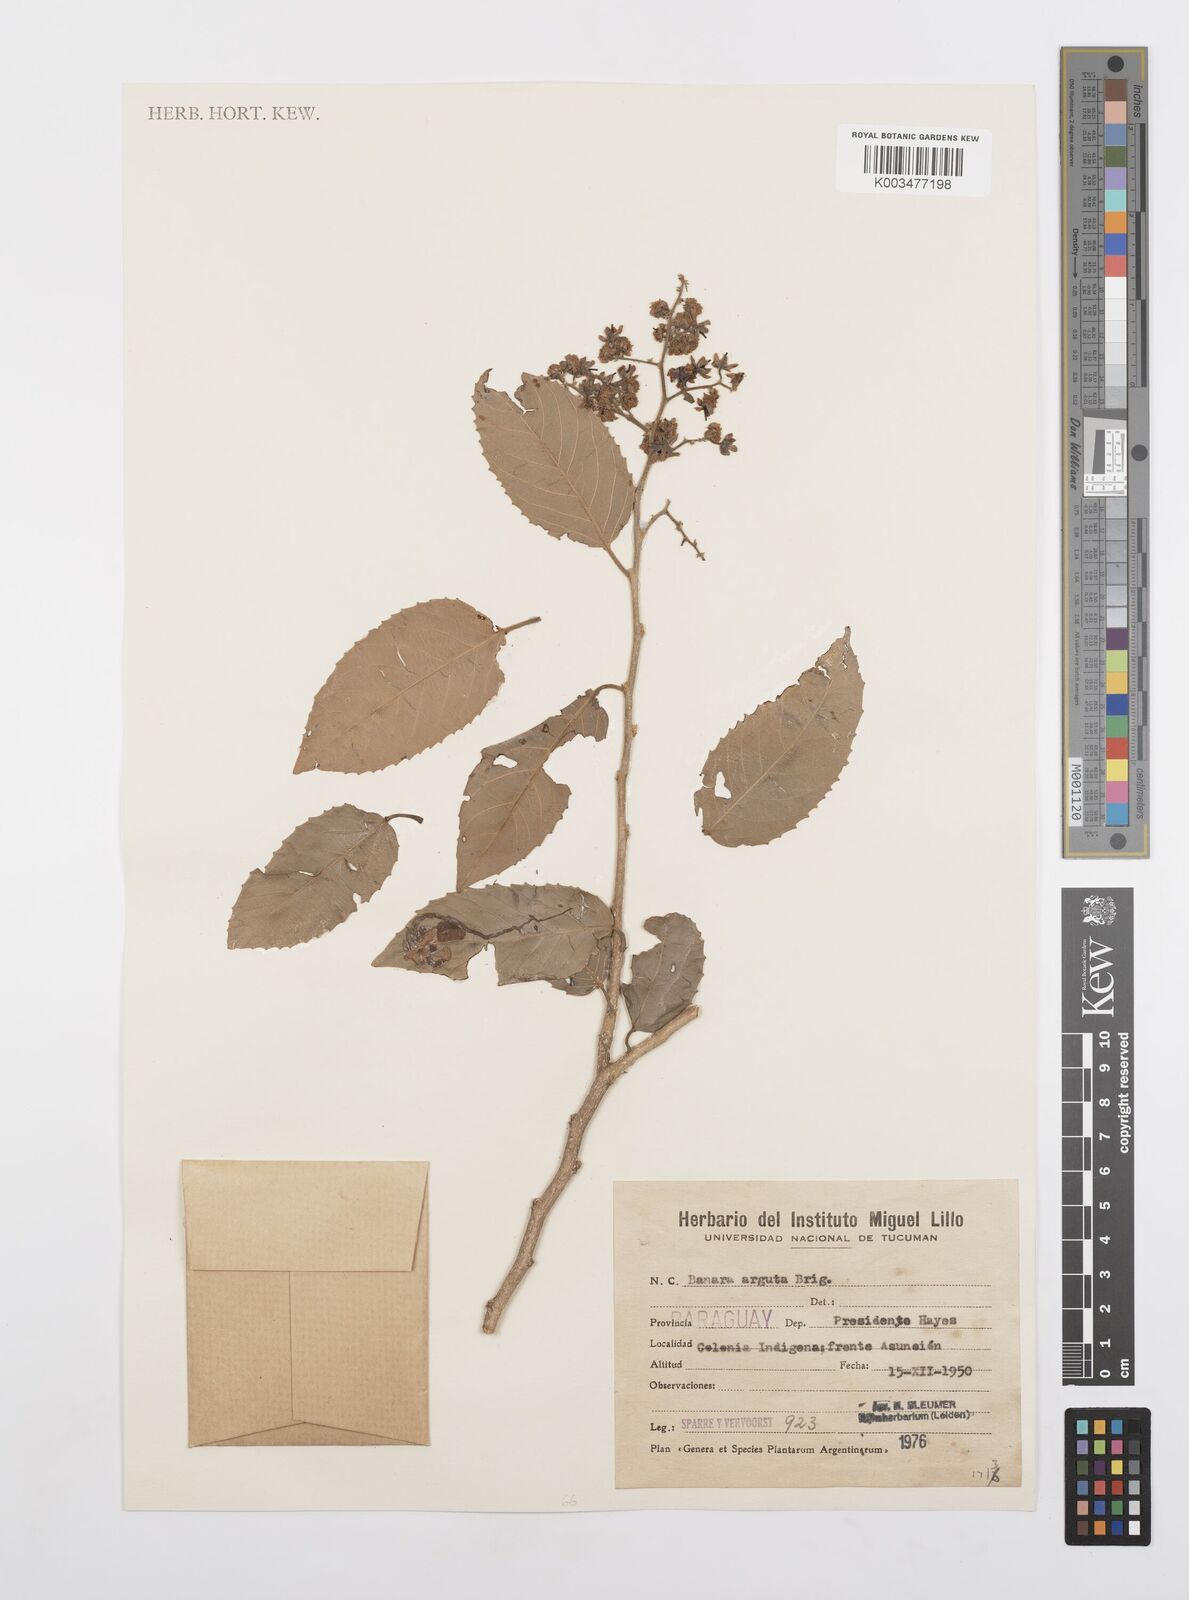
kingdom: Plantae
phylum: Tracheophyta
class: Magnoliopsida
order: Malpighiales
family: Salicaceae
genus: Banara
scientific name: Banara arguta
